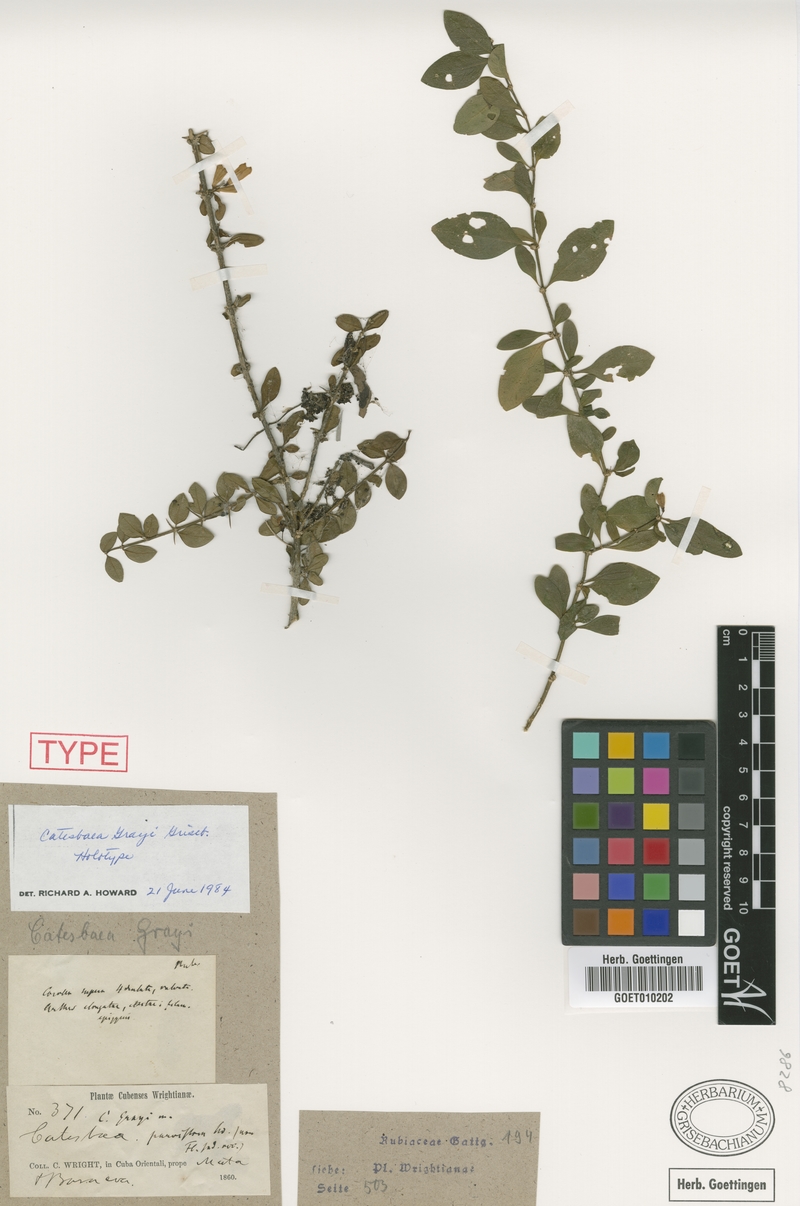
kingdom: Plantae
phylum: Tracheophyta
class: Magnoliopsida
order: Gentianales
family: Rubiaceae
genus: Catesbaea
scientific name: Catesbaea grayi
